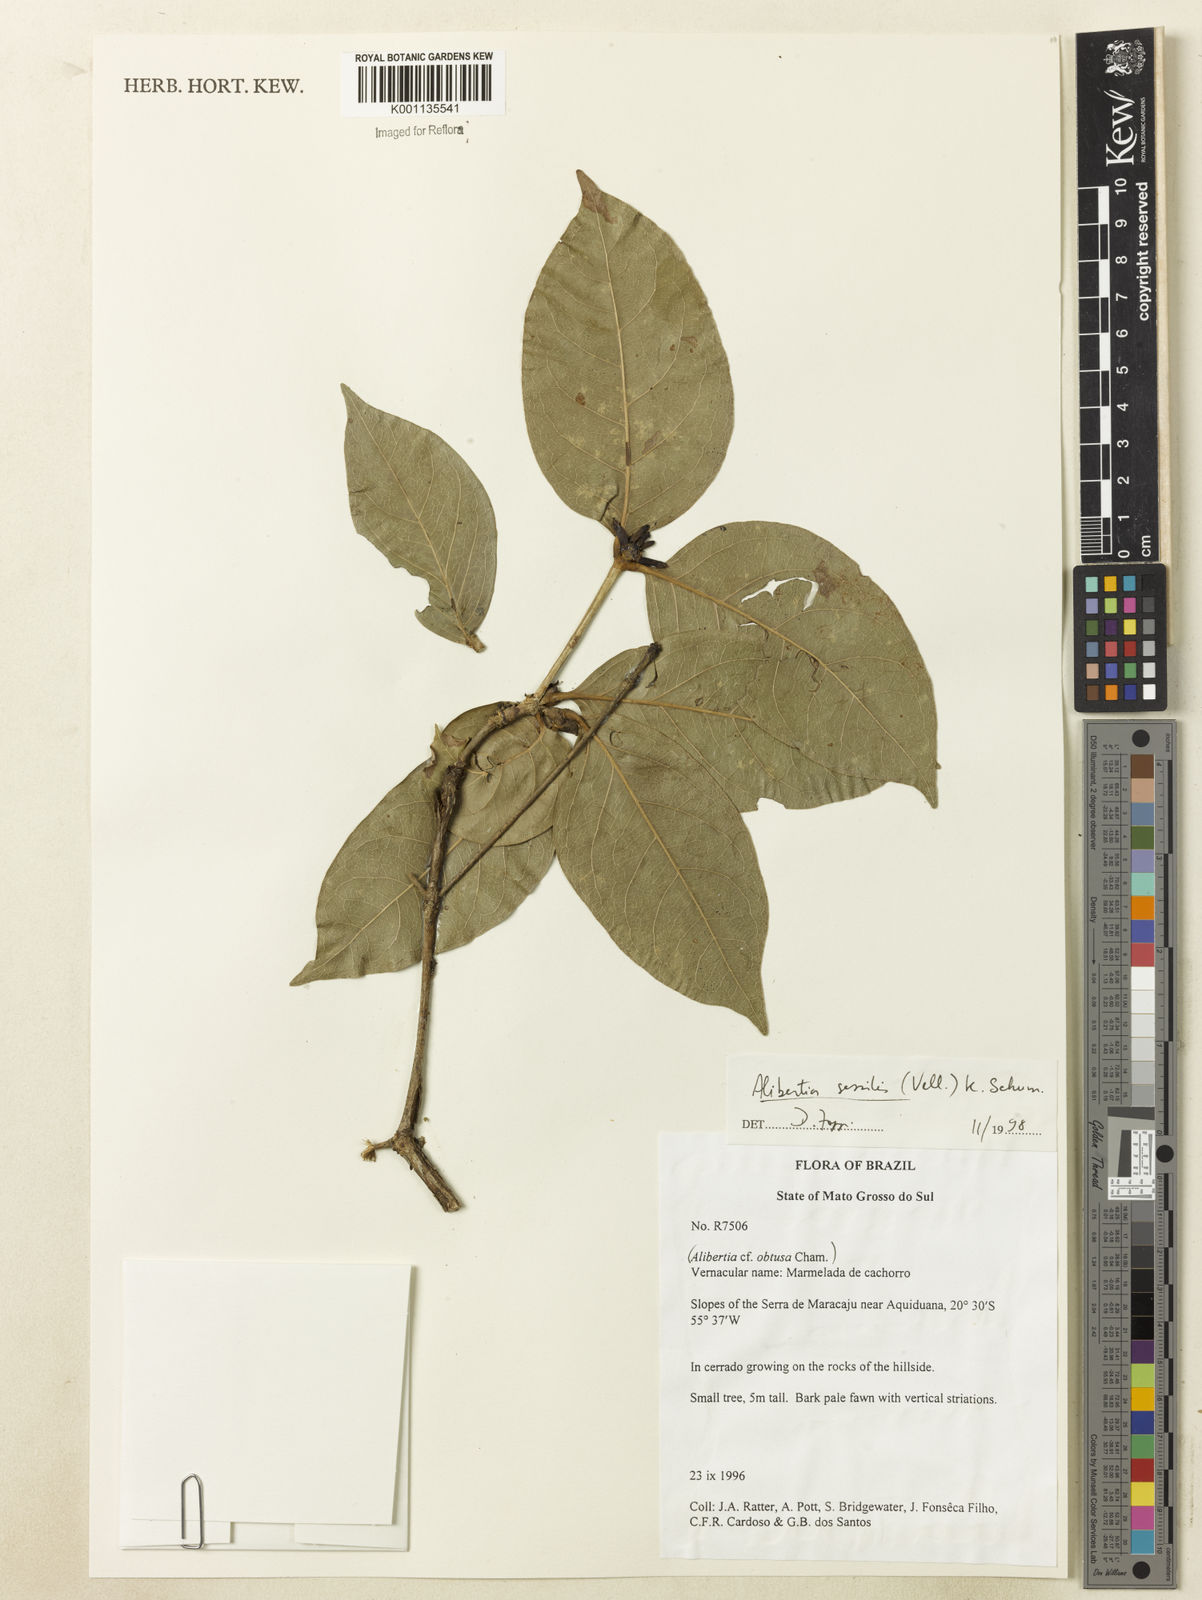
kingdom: Plantae
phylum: Tracheophyta
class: Magnoliopsida
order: Gentianales
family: Rubiaceae
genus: Cordiera
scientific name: Cordiera sessilis
